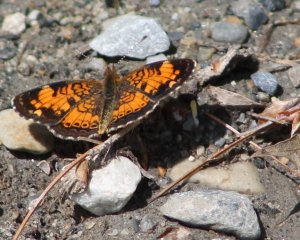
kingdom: Animalia
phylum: Arthropoda
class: Insecta
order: Lepidoptera
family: Nymphalidae
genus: Phyciodes
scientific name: Phyciodes tharos
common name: Pearl Crescent
